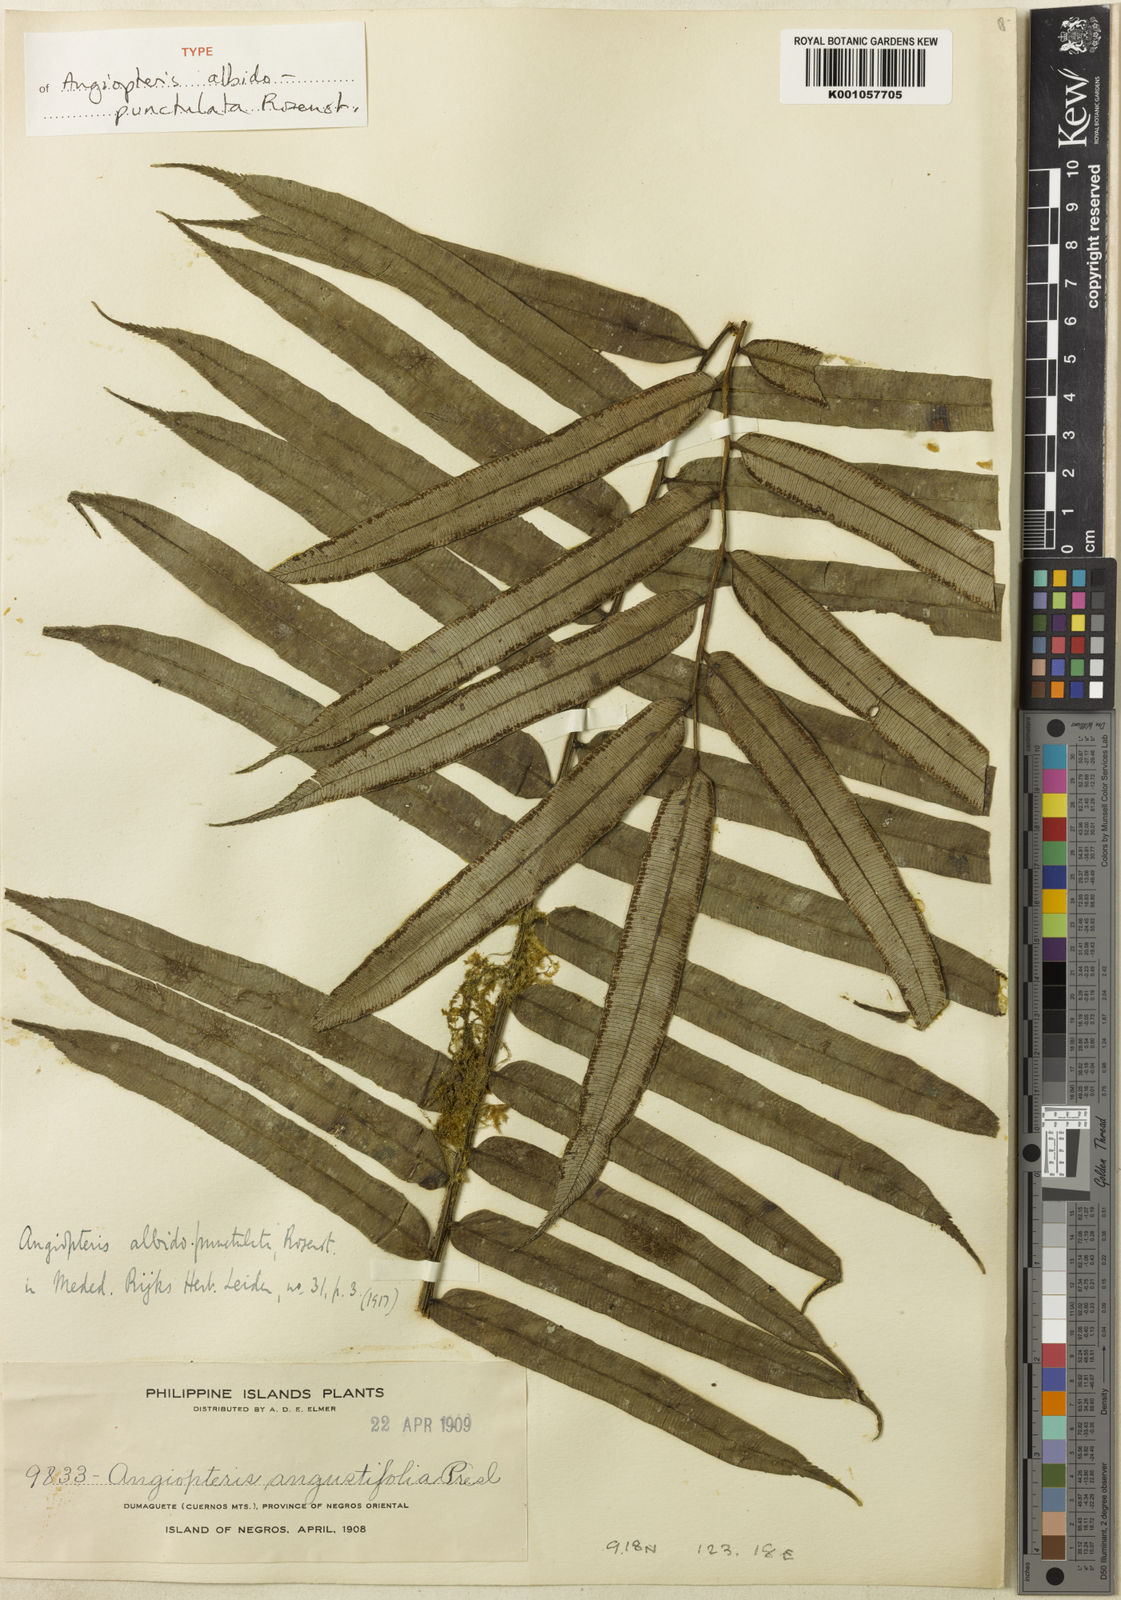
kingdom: Plantae
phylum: Tracheophyta
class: Polypodiopsida
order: Marattiales
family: Marattiaceae
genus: Angiopteris
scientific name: Angiopteris arborescens
